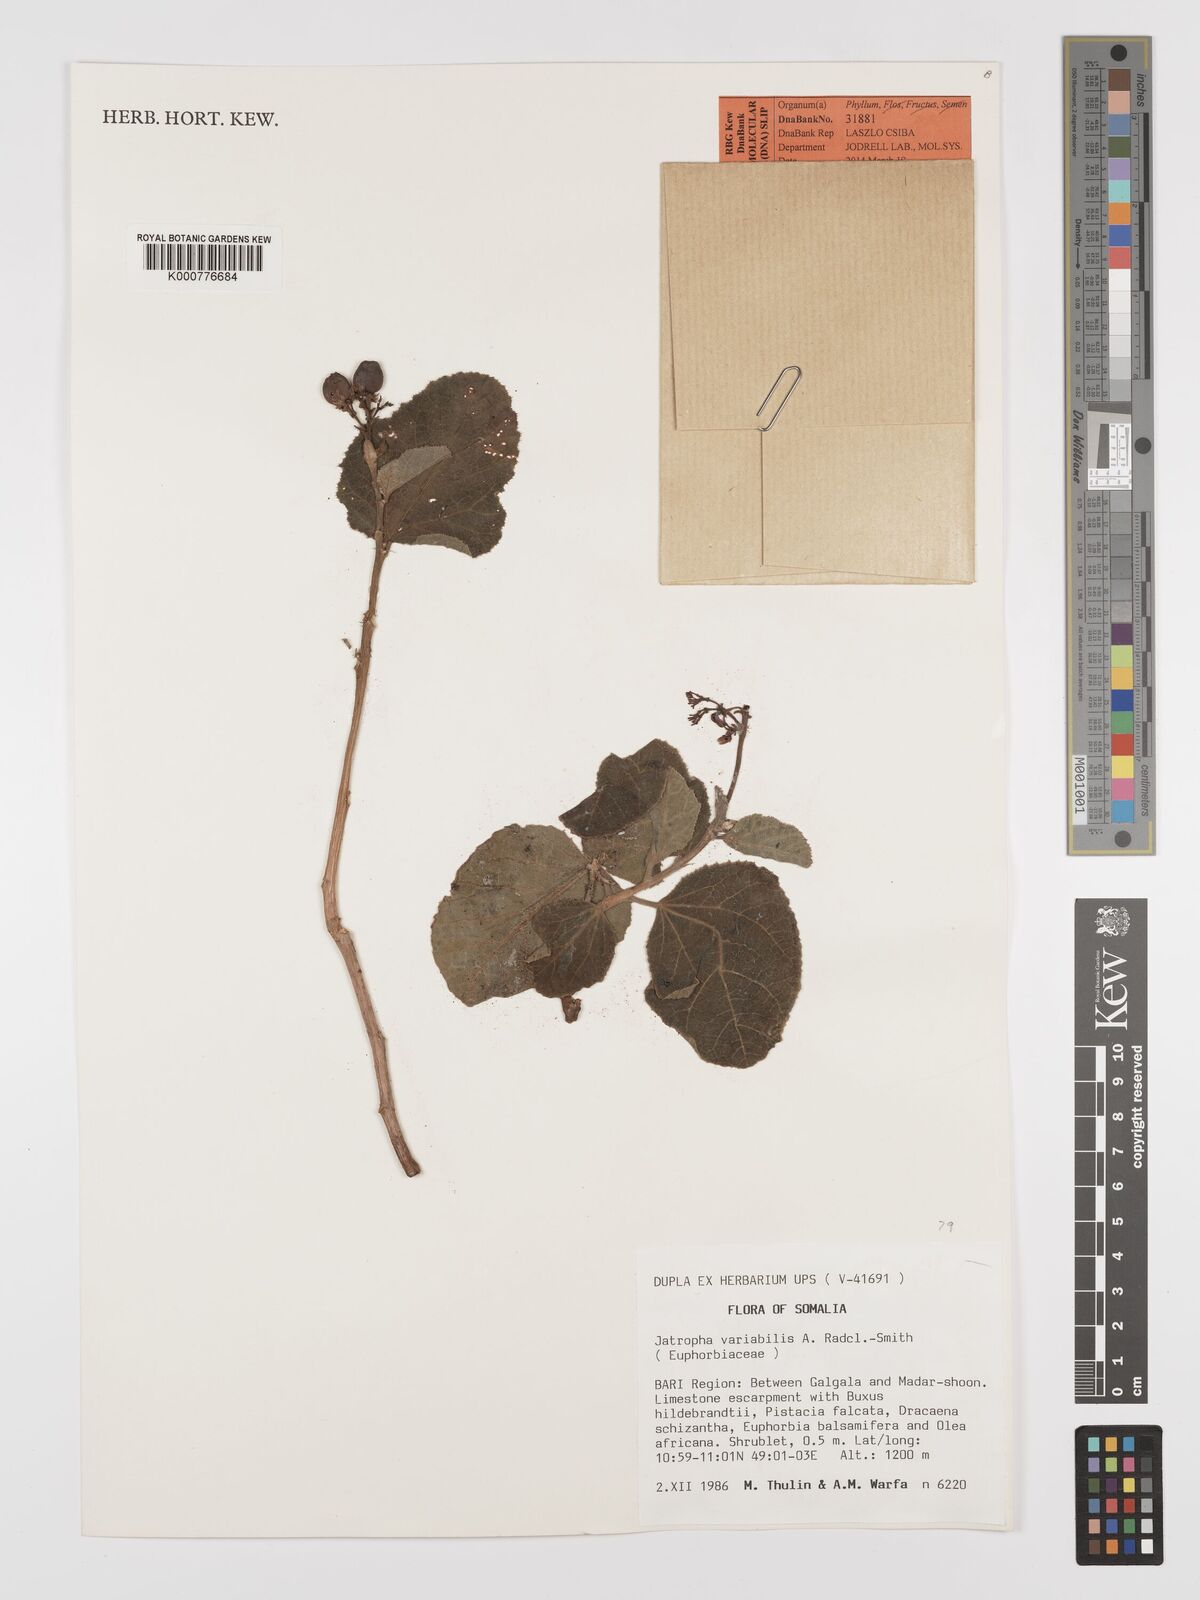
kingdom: Plantae
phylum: Tracheophyta
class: Magnoliopsida
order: Malpighiales
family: Euphorbiaceae
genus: Jatropha
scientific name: Jatropha variabilis
